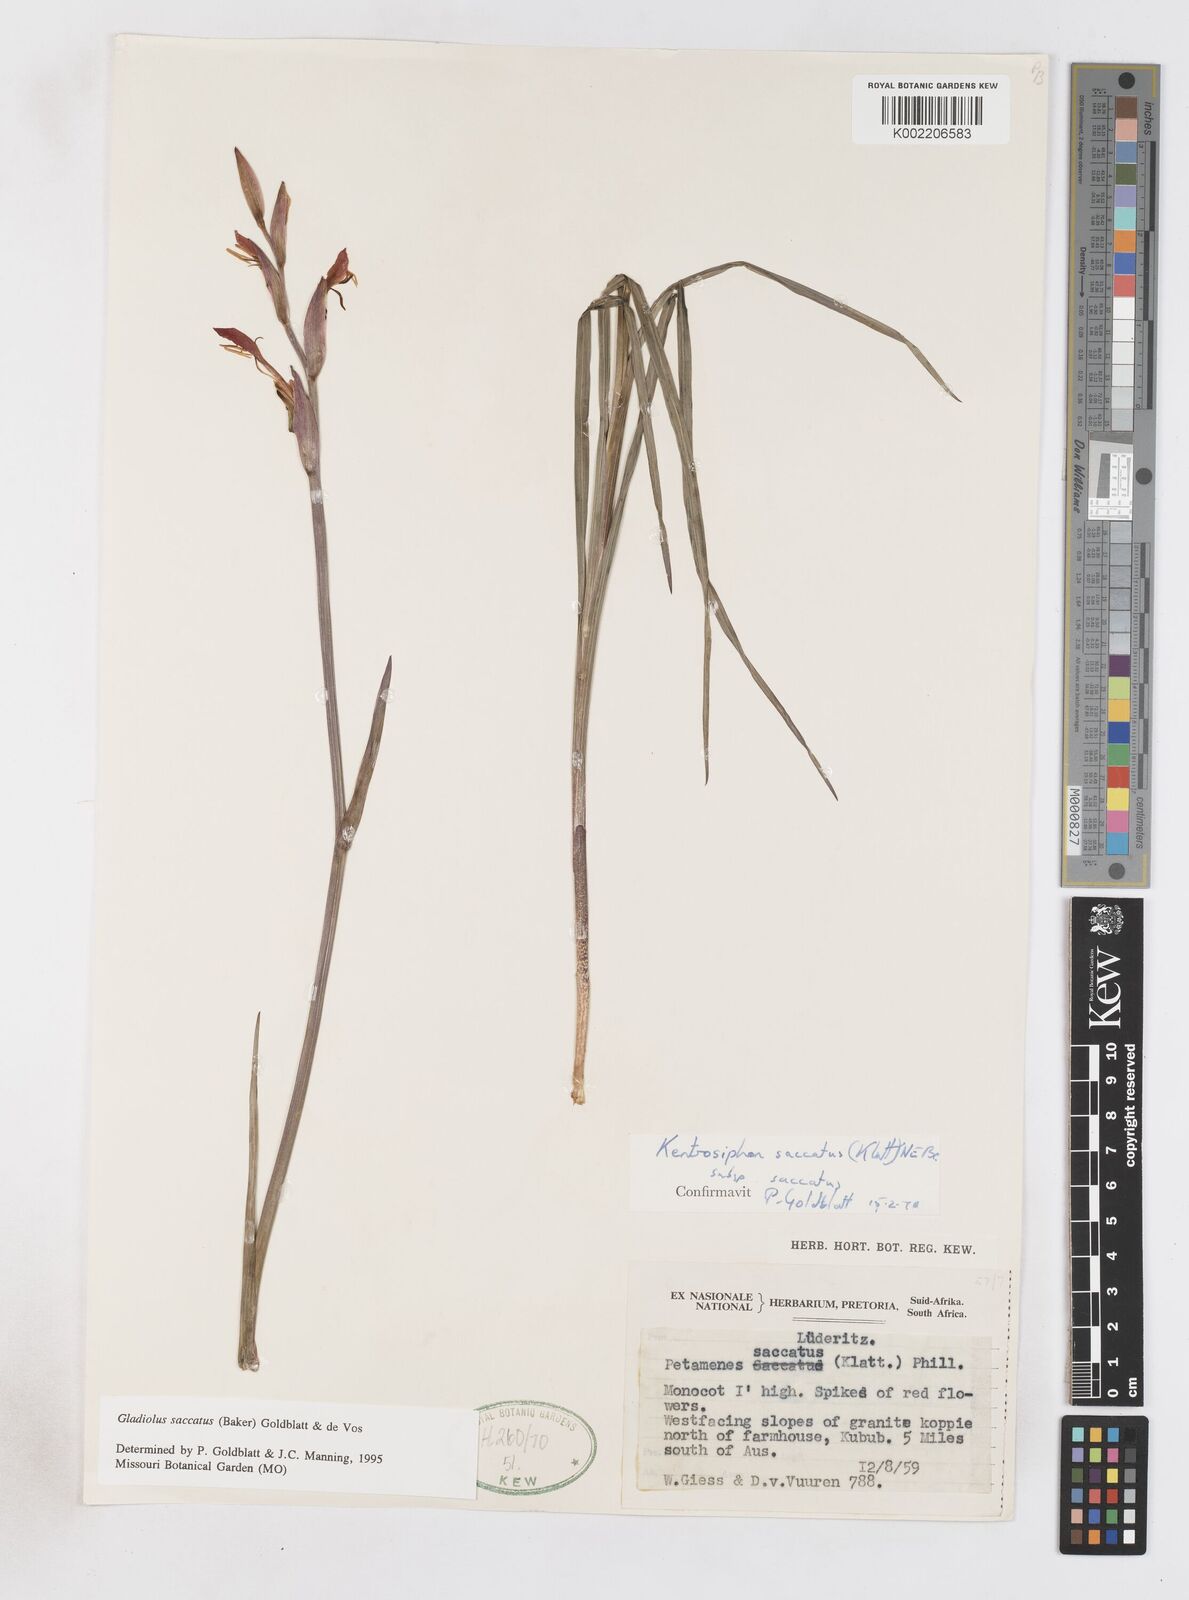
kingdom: Plantae
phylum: Tracheophyta
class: Liliopsida
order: Asparagales
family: Iridaceae
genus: Gladiolus
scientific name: Gladiolus saccatus
